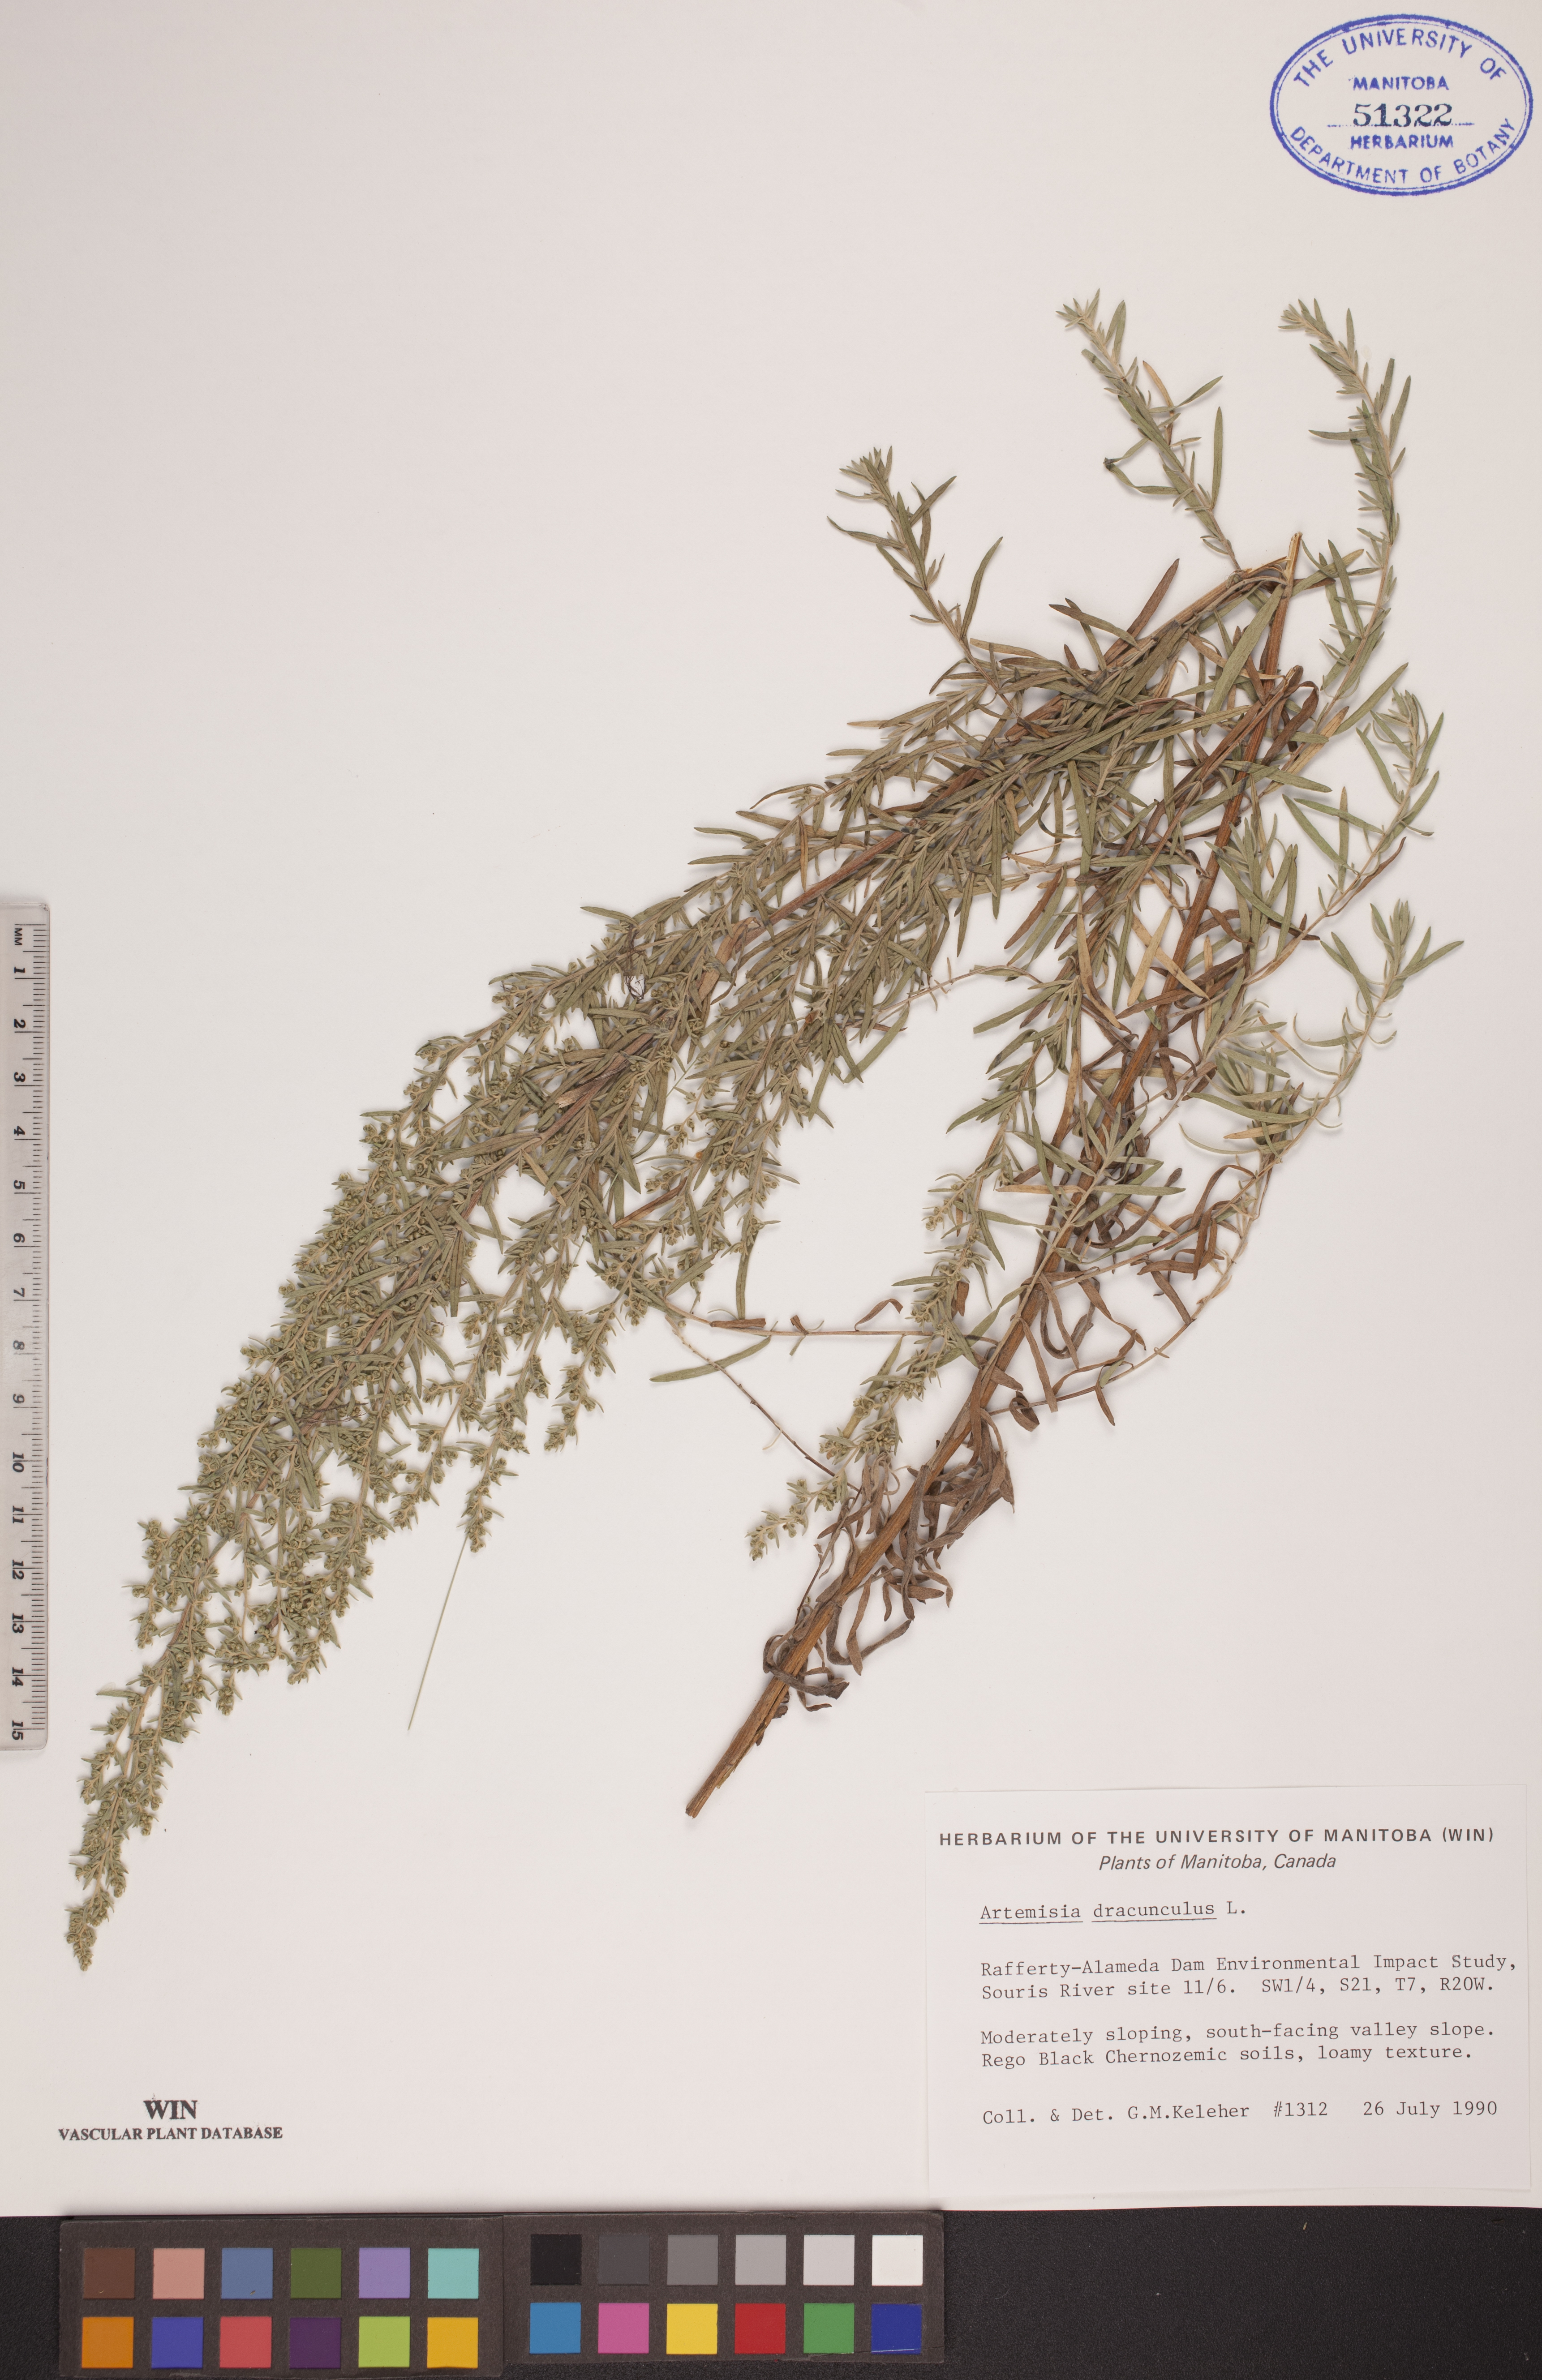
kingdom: Plantae
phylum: Tracheophyta
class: Magnoliopsida
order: Asterales
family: Asteraceae
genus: Artemisia
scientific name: Artemisia dracunculus
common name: Tarragon
